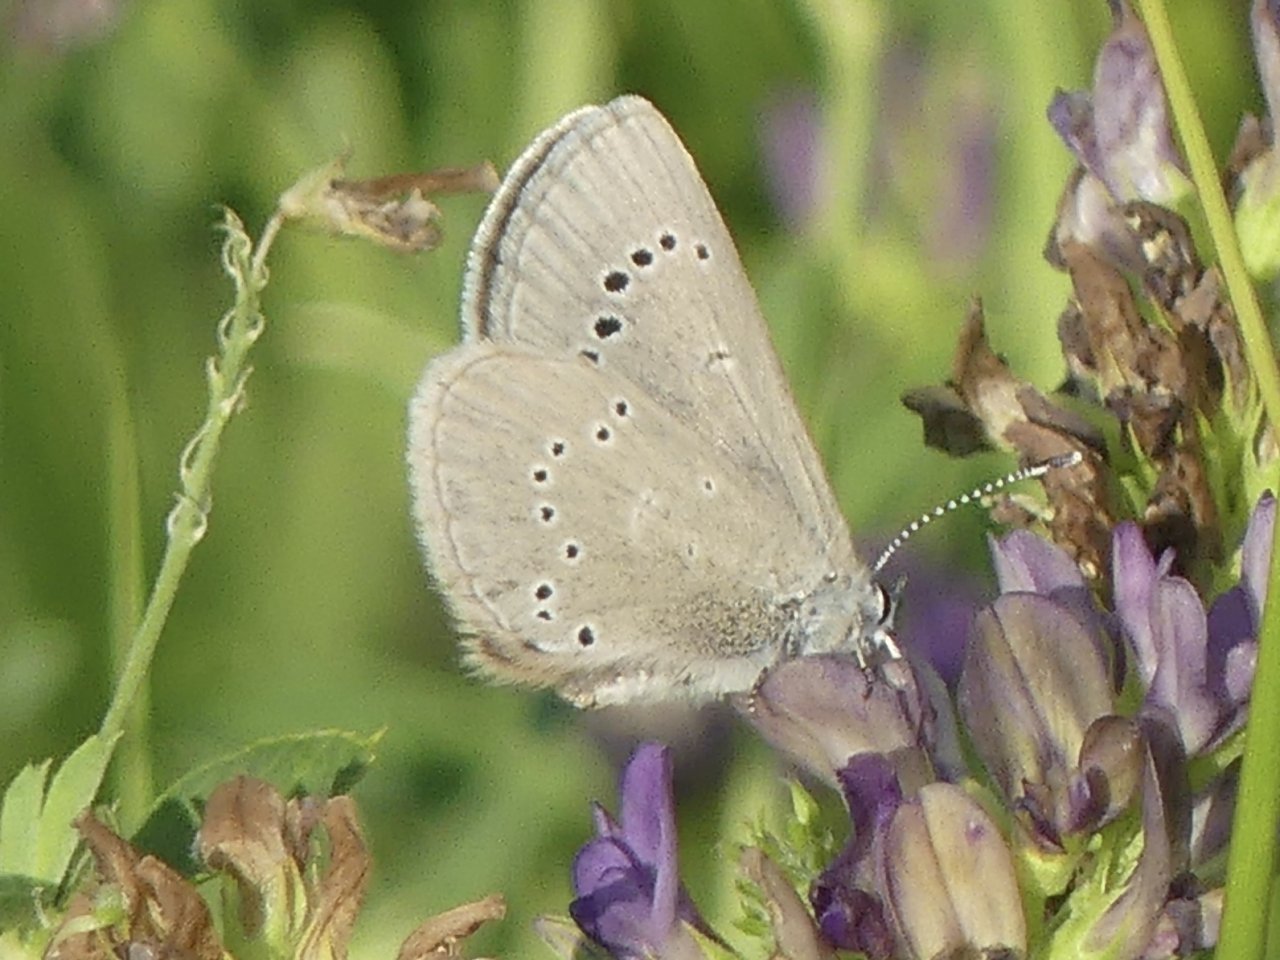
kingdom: Animalia
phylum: Arthropoda
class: Insecta
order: Lepidoptera
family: Lycaenidae
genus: Glaucopsyche
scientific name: Glaucopsyche lygdamus
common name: Silvery Blue
